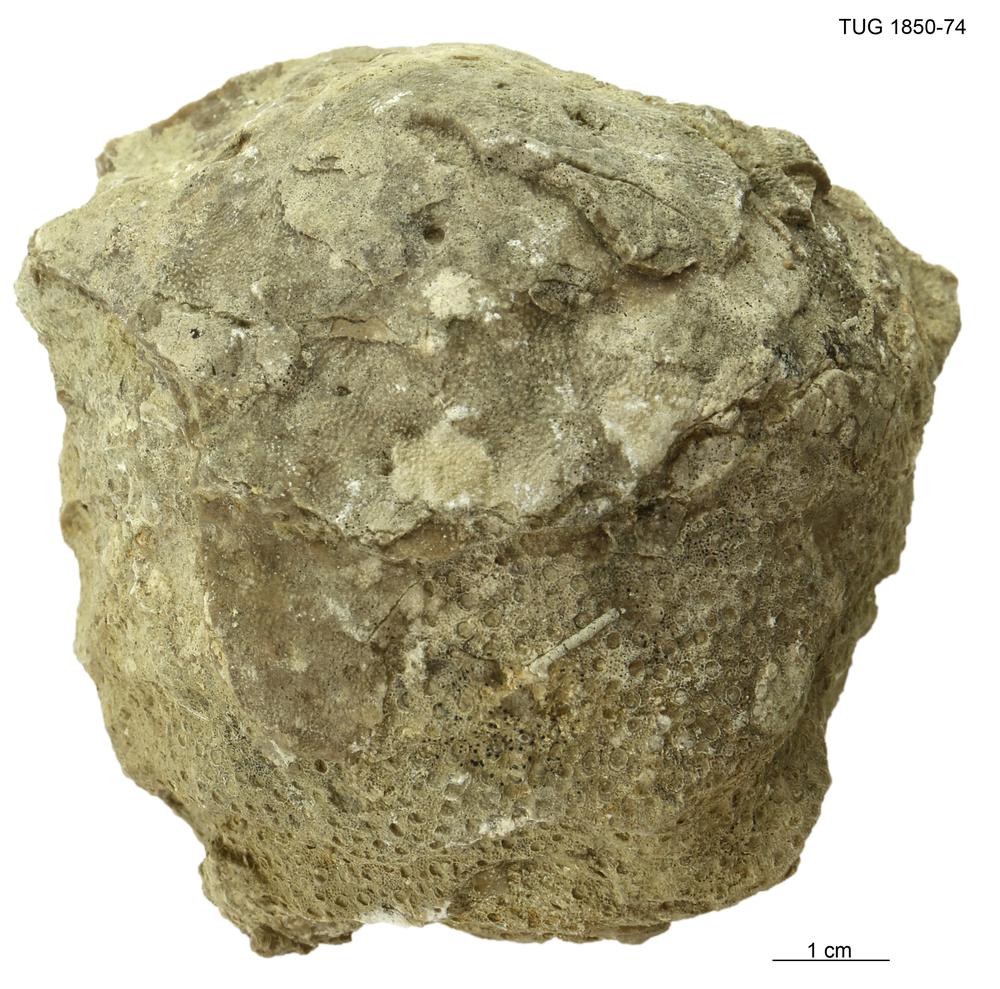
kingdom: Animalia
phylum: Porifera
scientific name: Porifera
